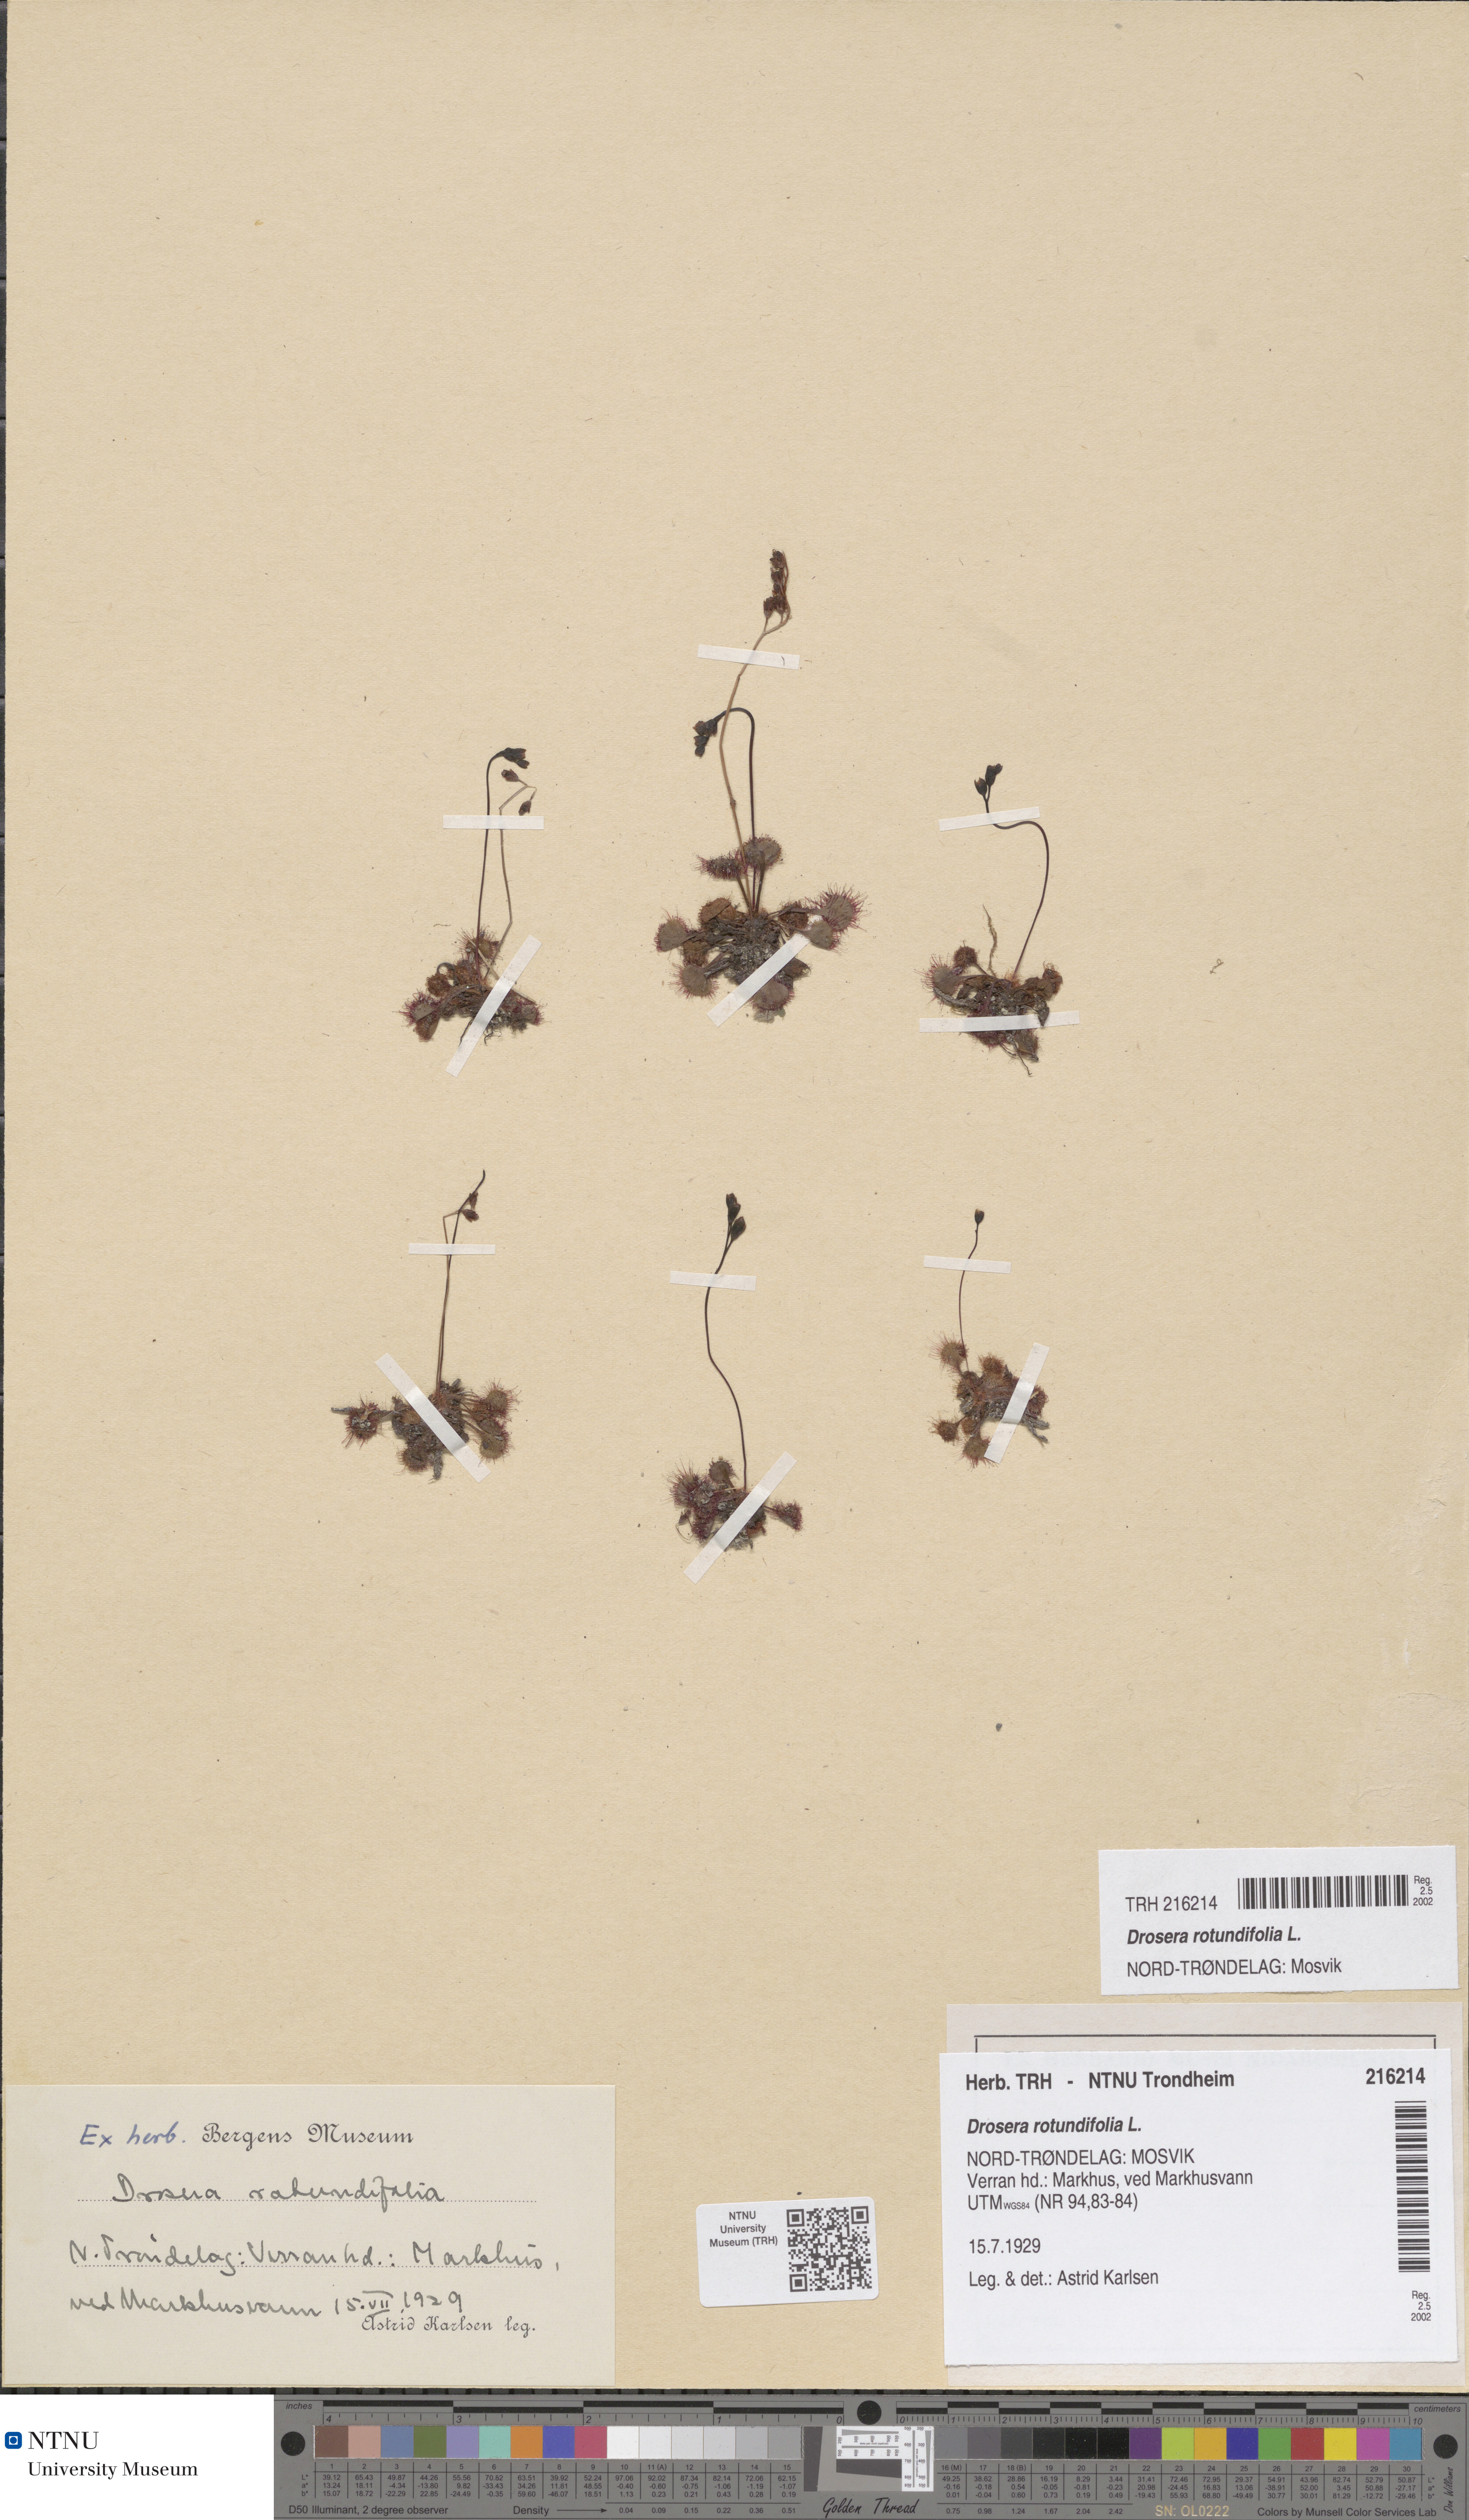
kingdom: Plantae
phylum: Tracheophyta
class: Magnoliopsida
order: Caryophyllales
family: Droseraceae
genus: Drosera
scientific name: Drosera rotundifolia
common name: Round-leaved sundew
